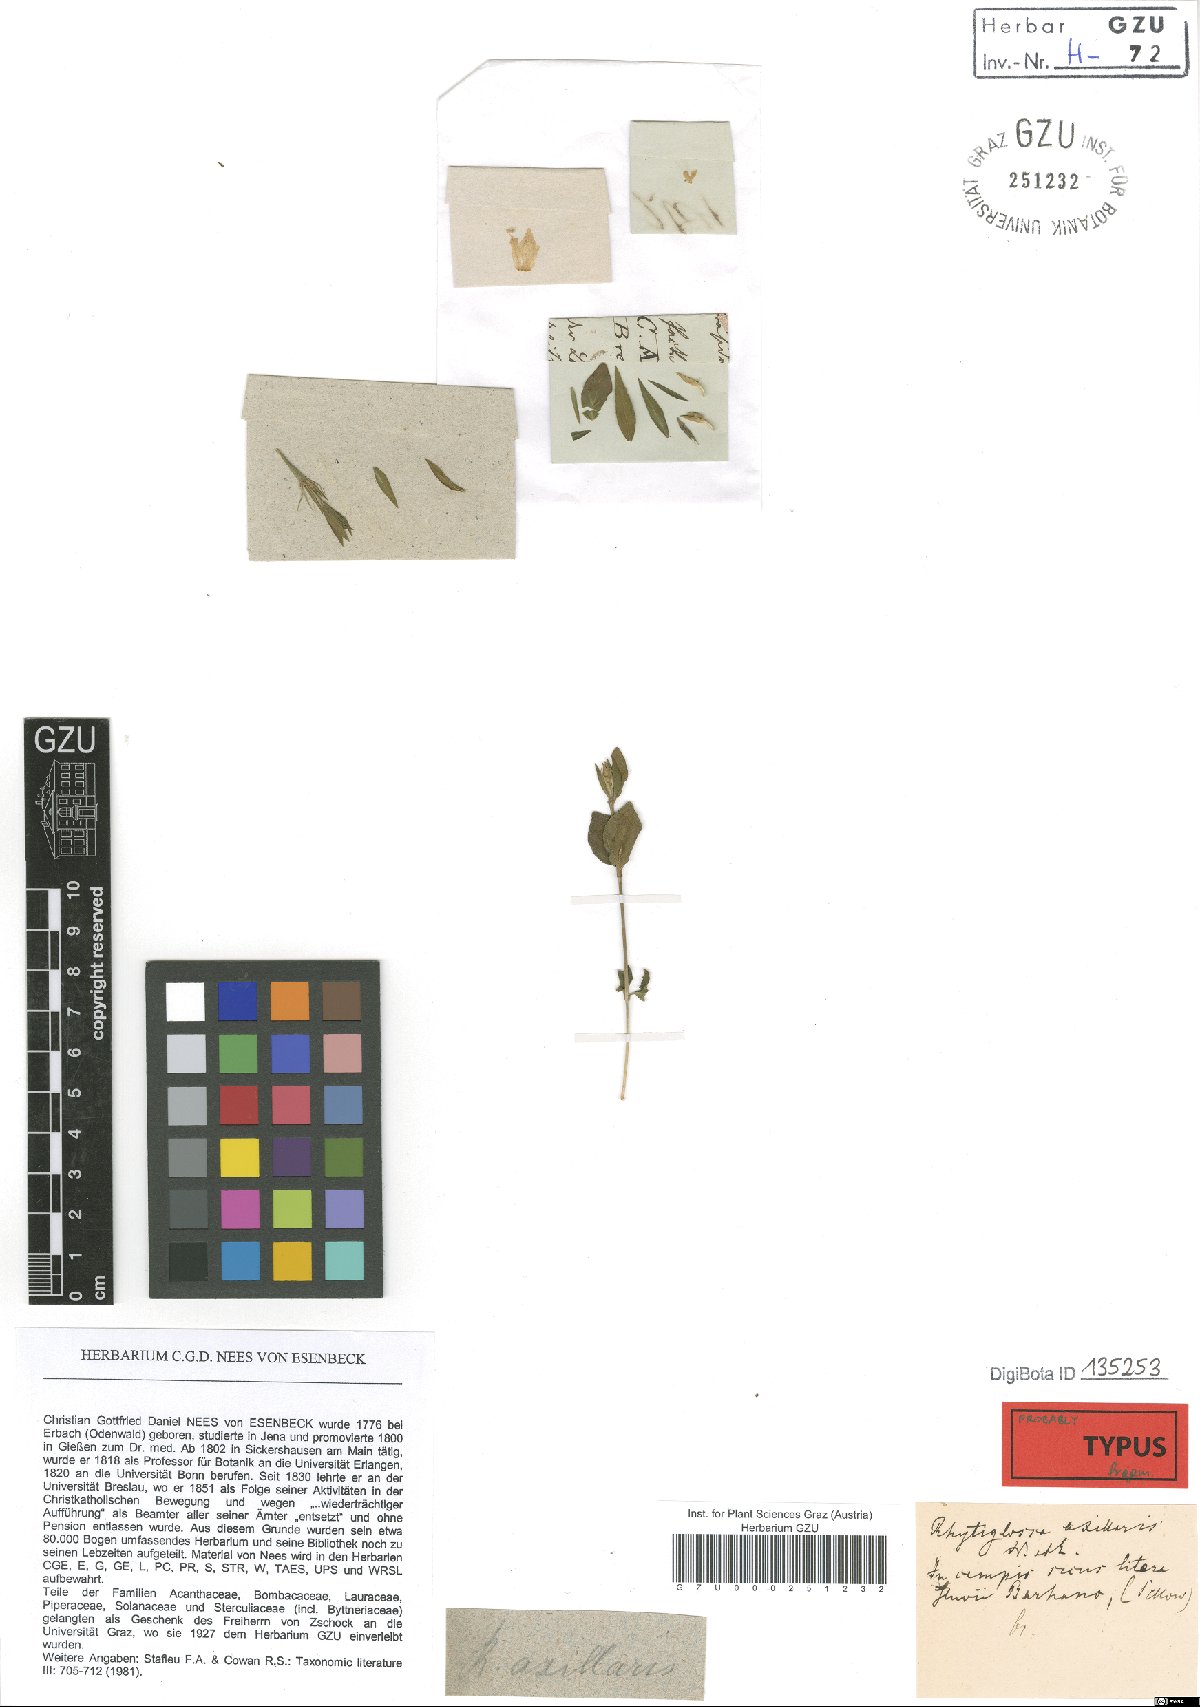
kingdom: Plantae
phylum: Tracheophyta
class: Magnoliopsida
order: Lamiales
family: Acanthaceae
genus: Justicia
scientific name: Justicia axillaris
